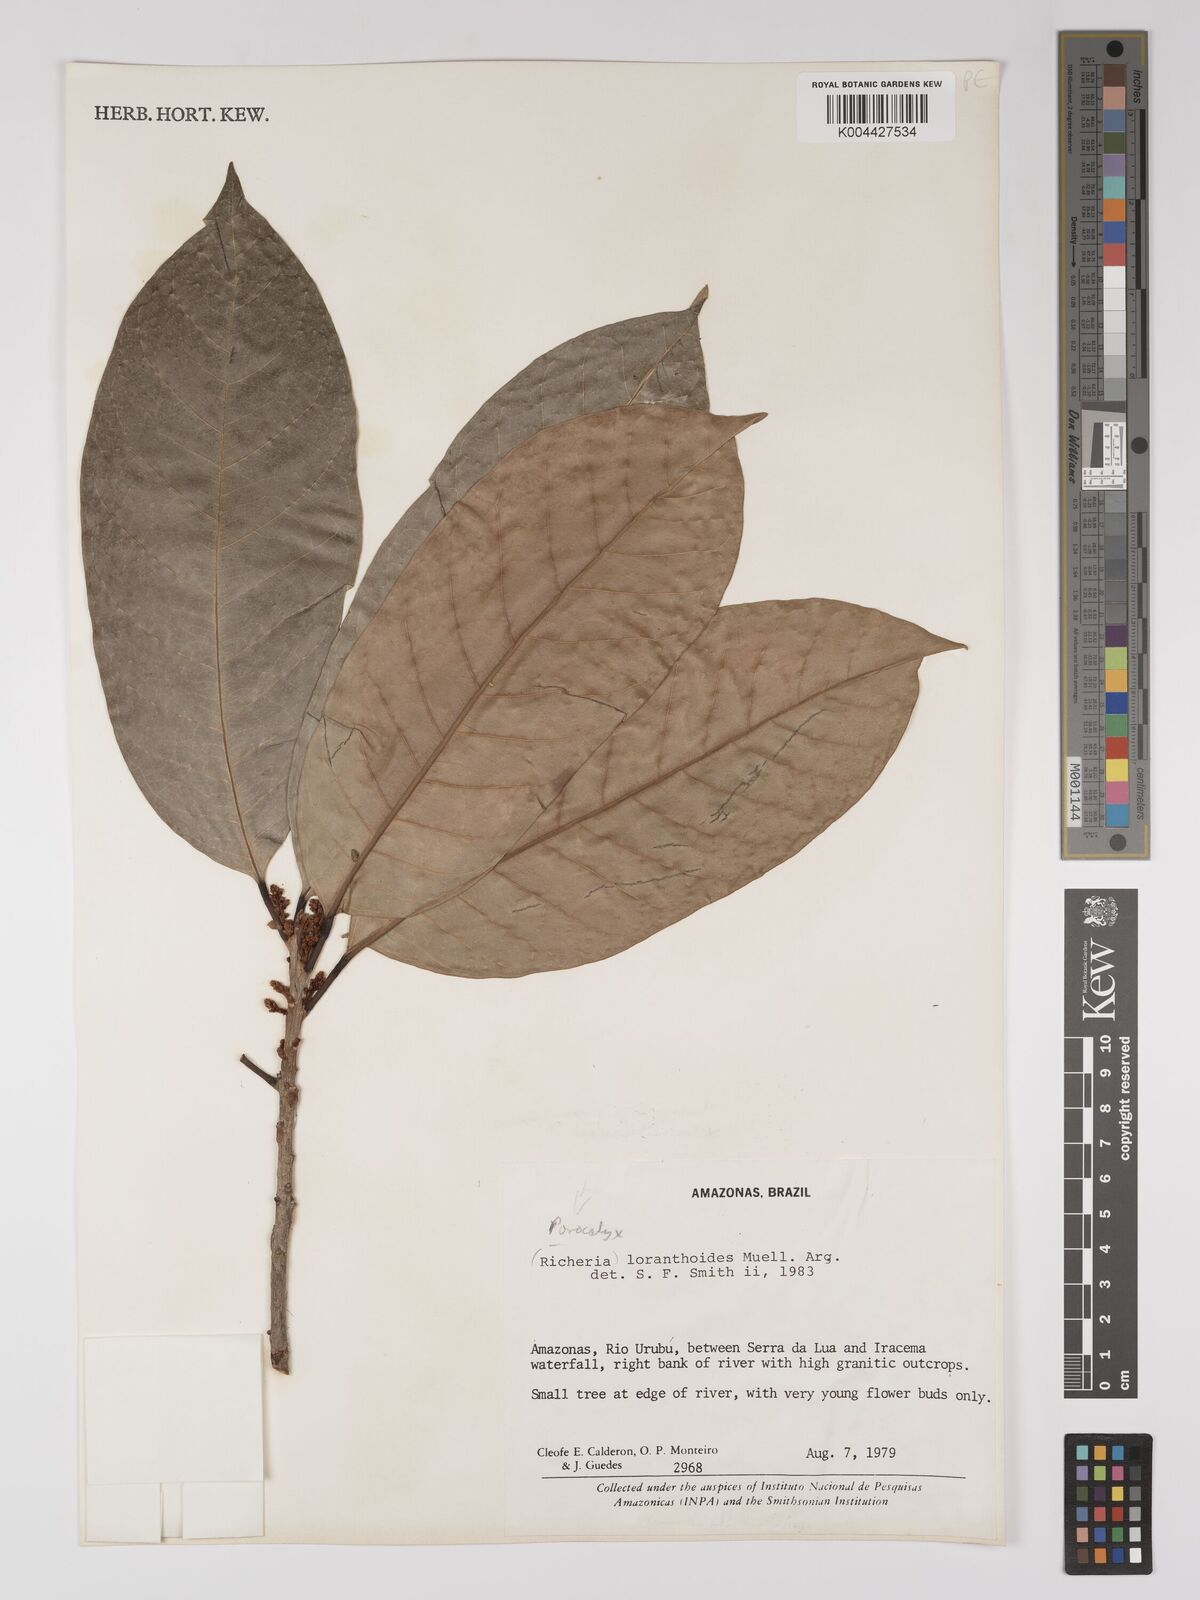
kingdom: Plantae
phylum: Tracheophyta
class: Magnoliopsida
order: Malpighiales
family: Picrodendraceae
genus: Podocalyx
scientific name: Podocalyx loranthoides
